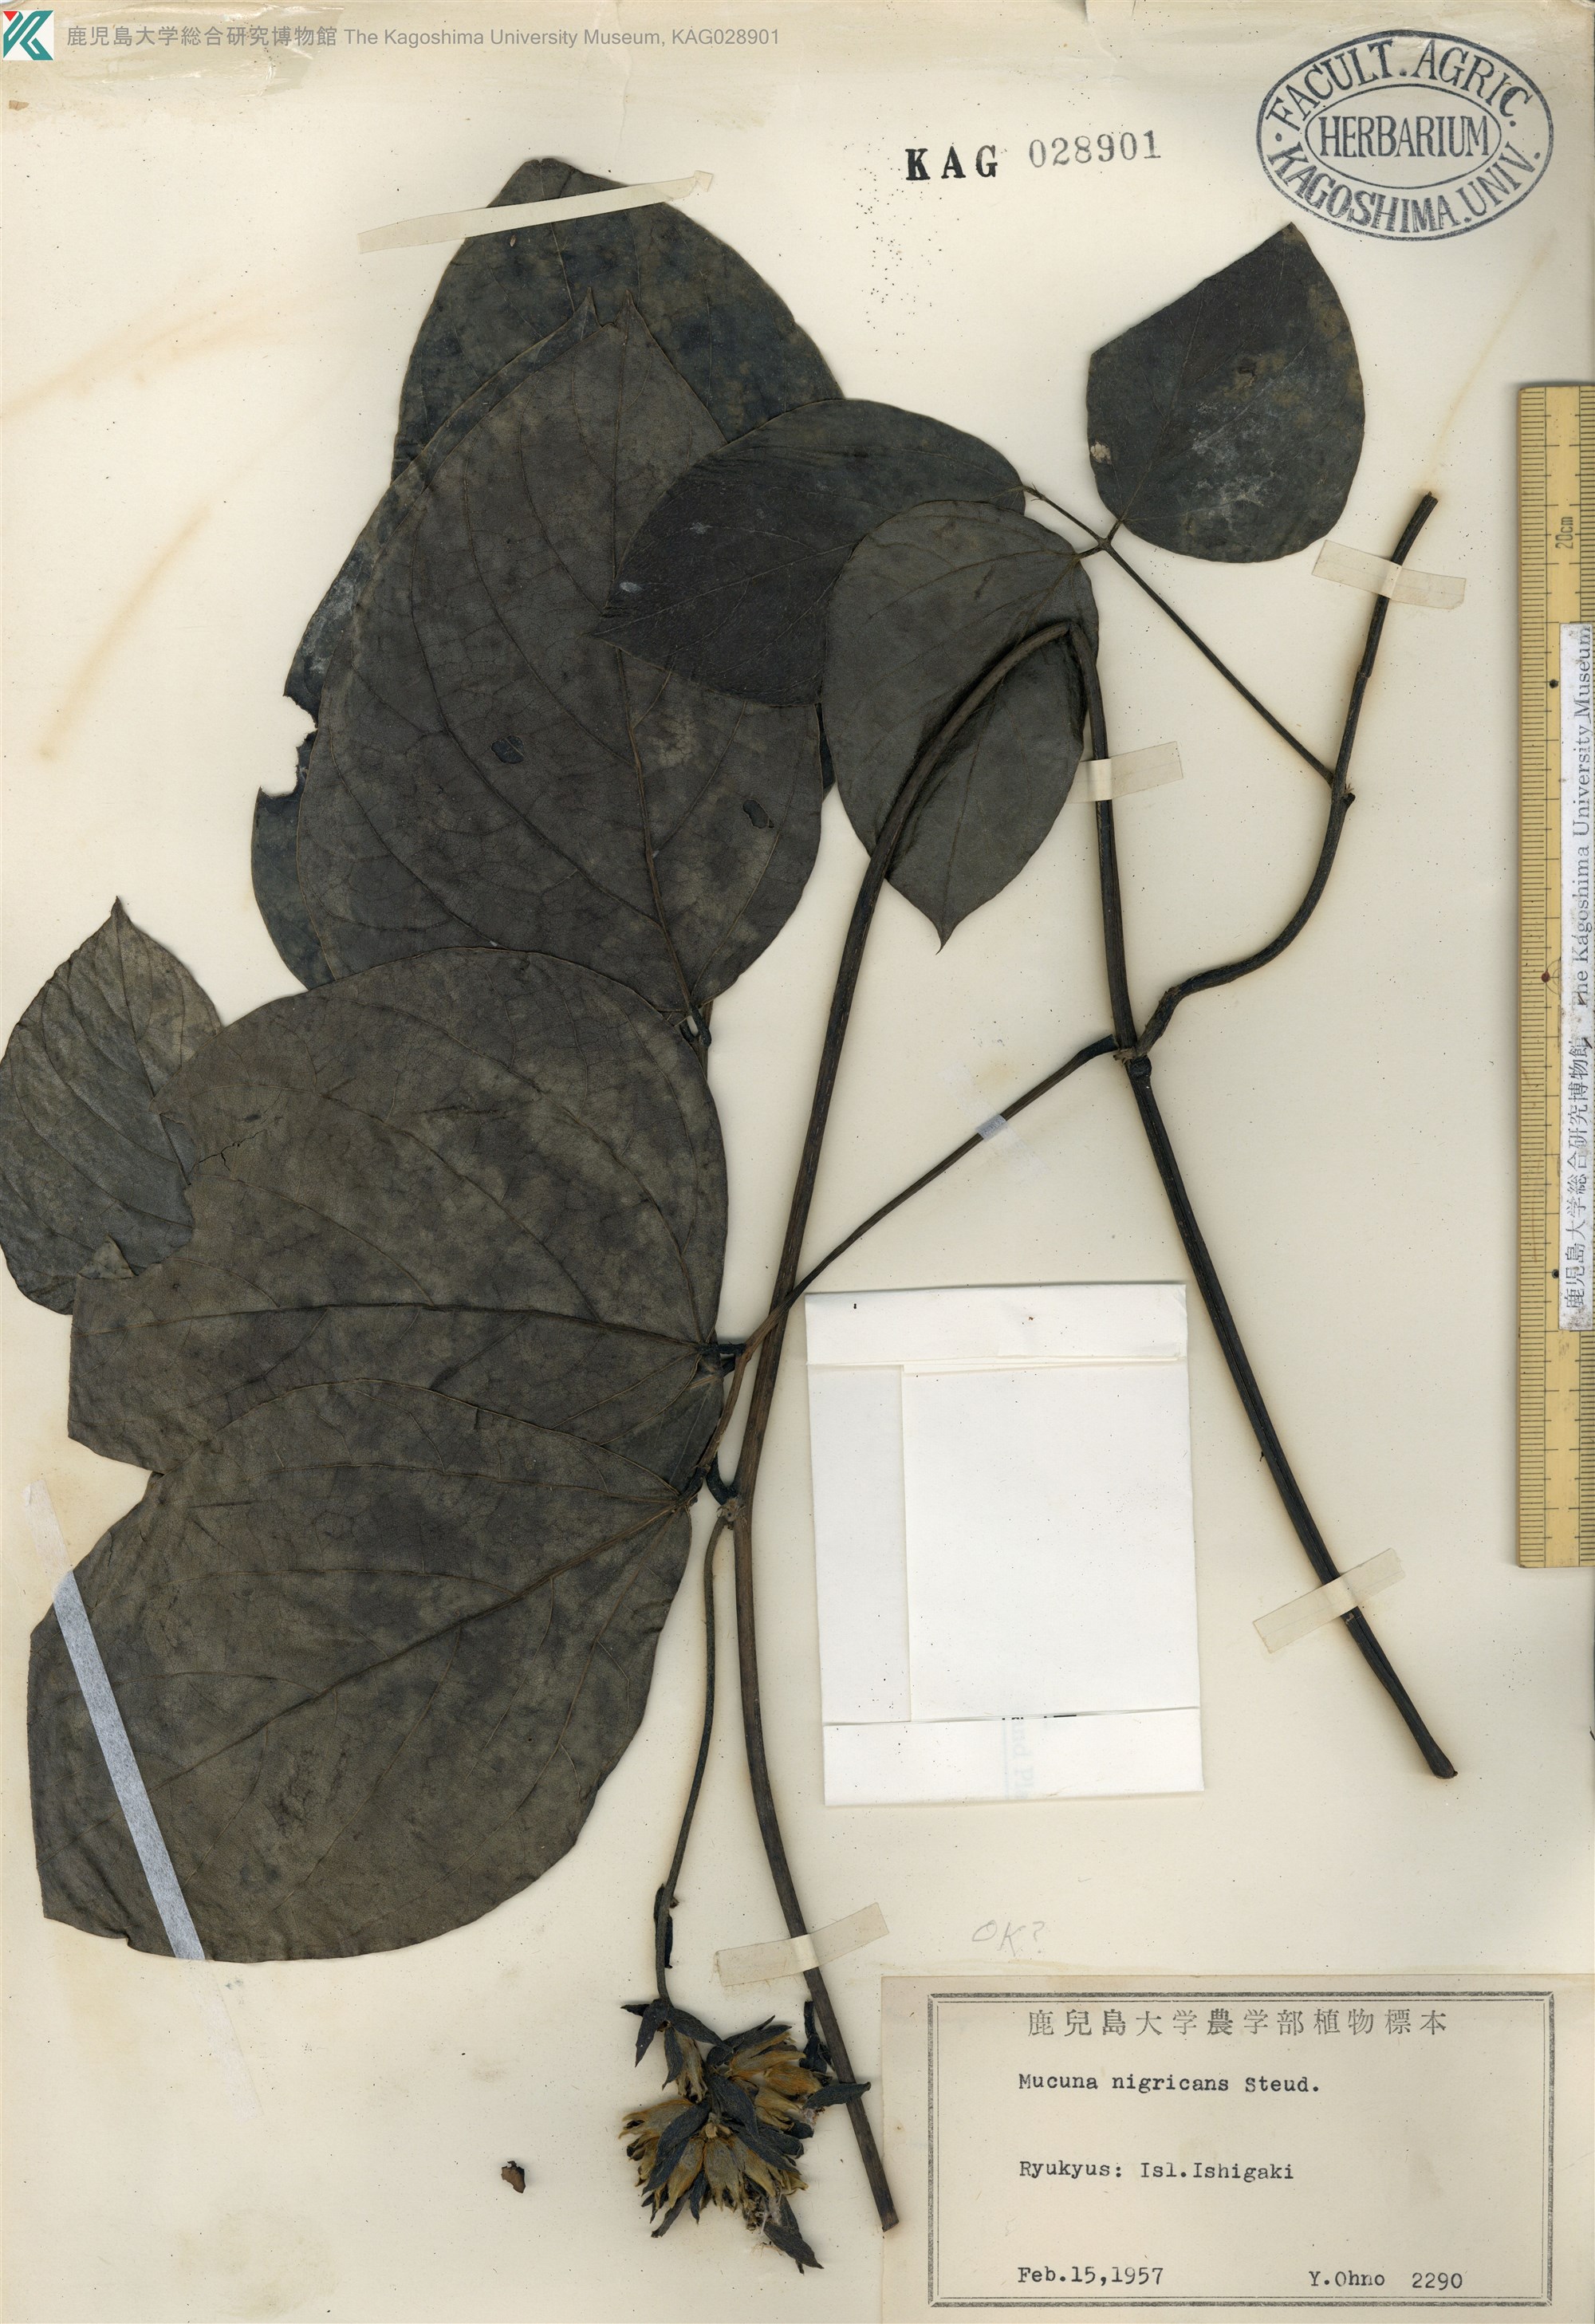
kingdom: Plantae
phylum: Tracheophyta
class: Magnoliopsida
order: Fabales
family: Fabaceae
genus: Mucuna
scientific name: Mucuna membranacea
